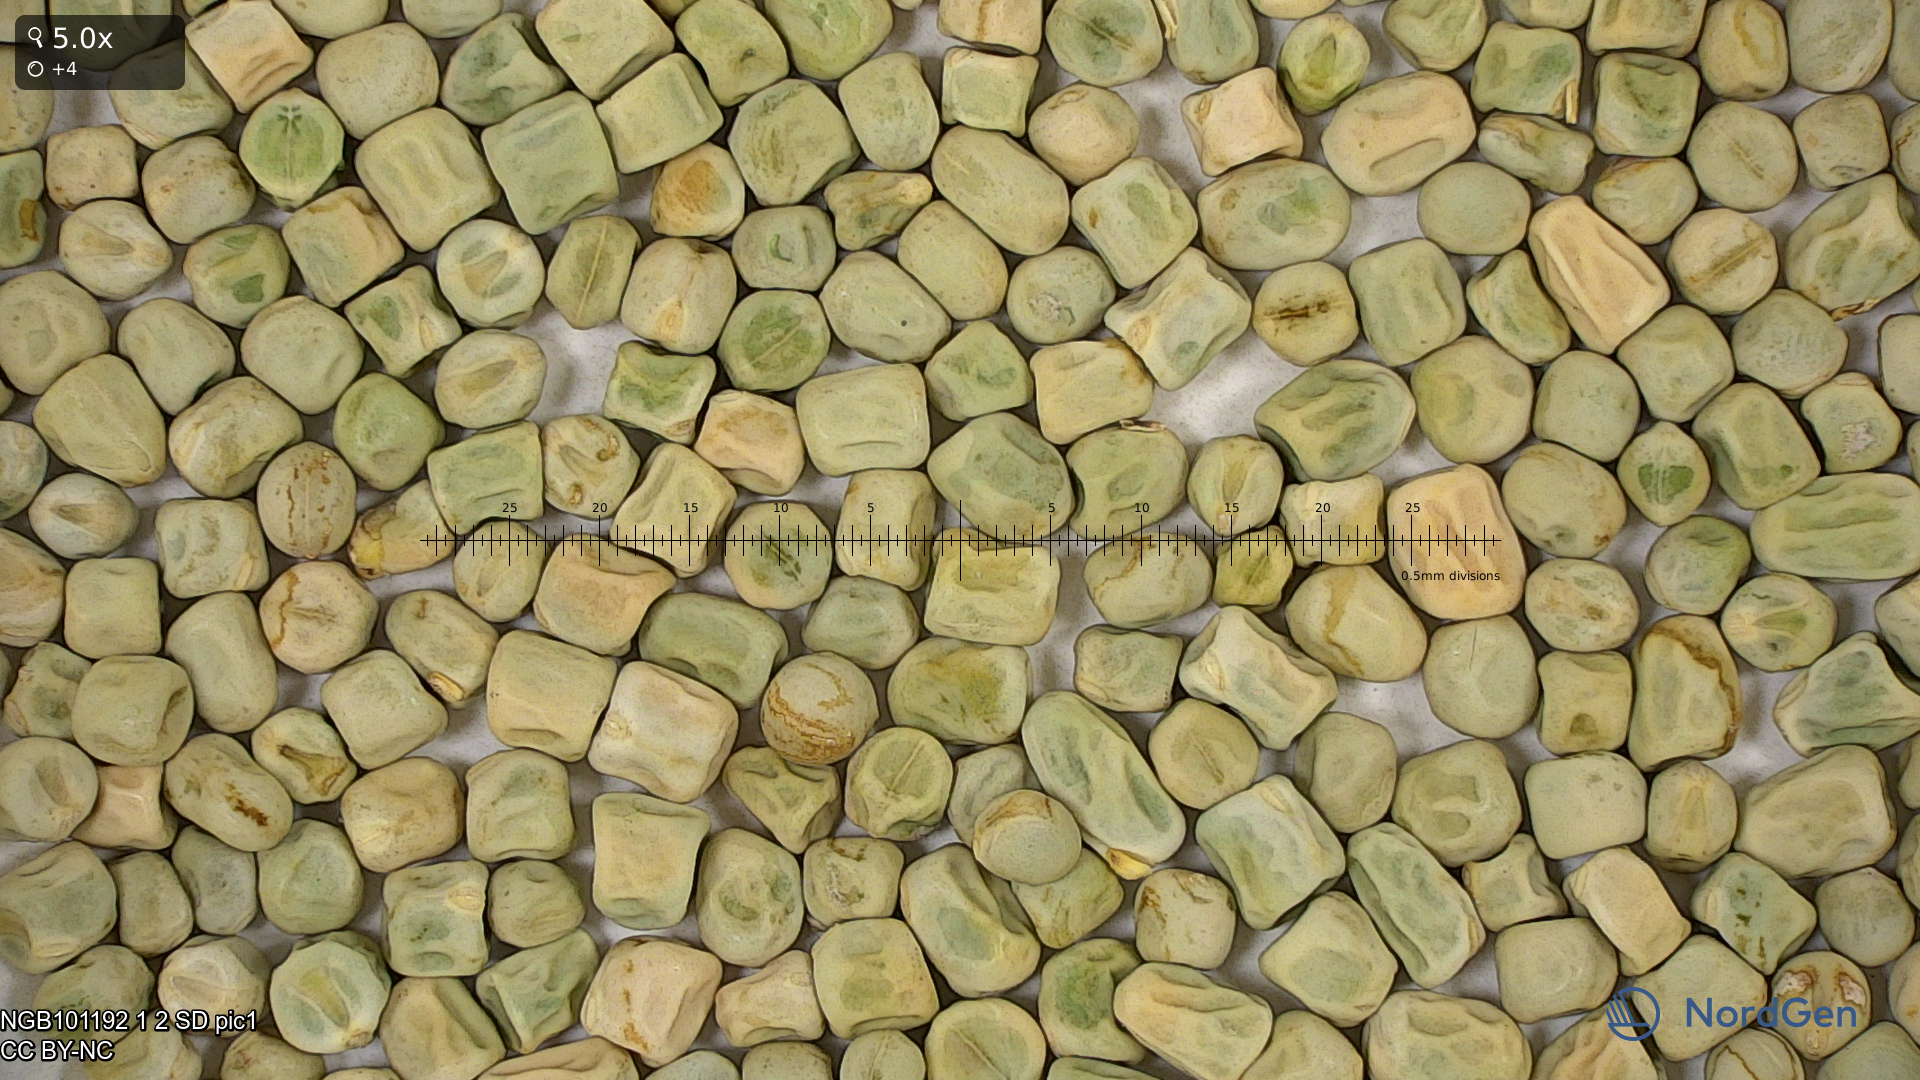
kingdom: Plantae
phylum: Tracheophyta
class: Magnoliopsida
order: Fabales
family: Fabaceae
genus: Lathyrus
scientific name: Lathyrus oleraceus
